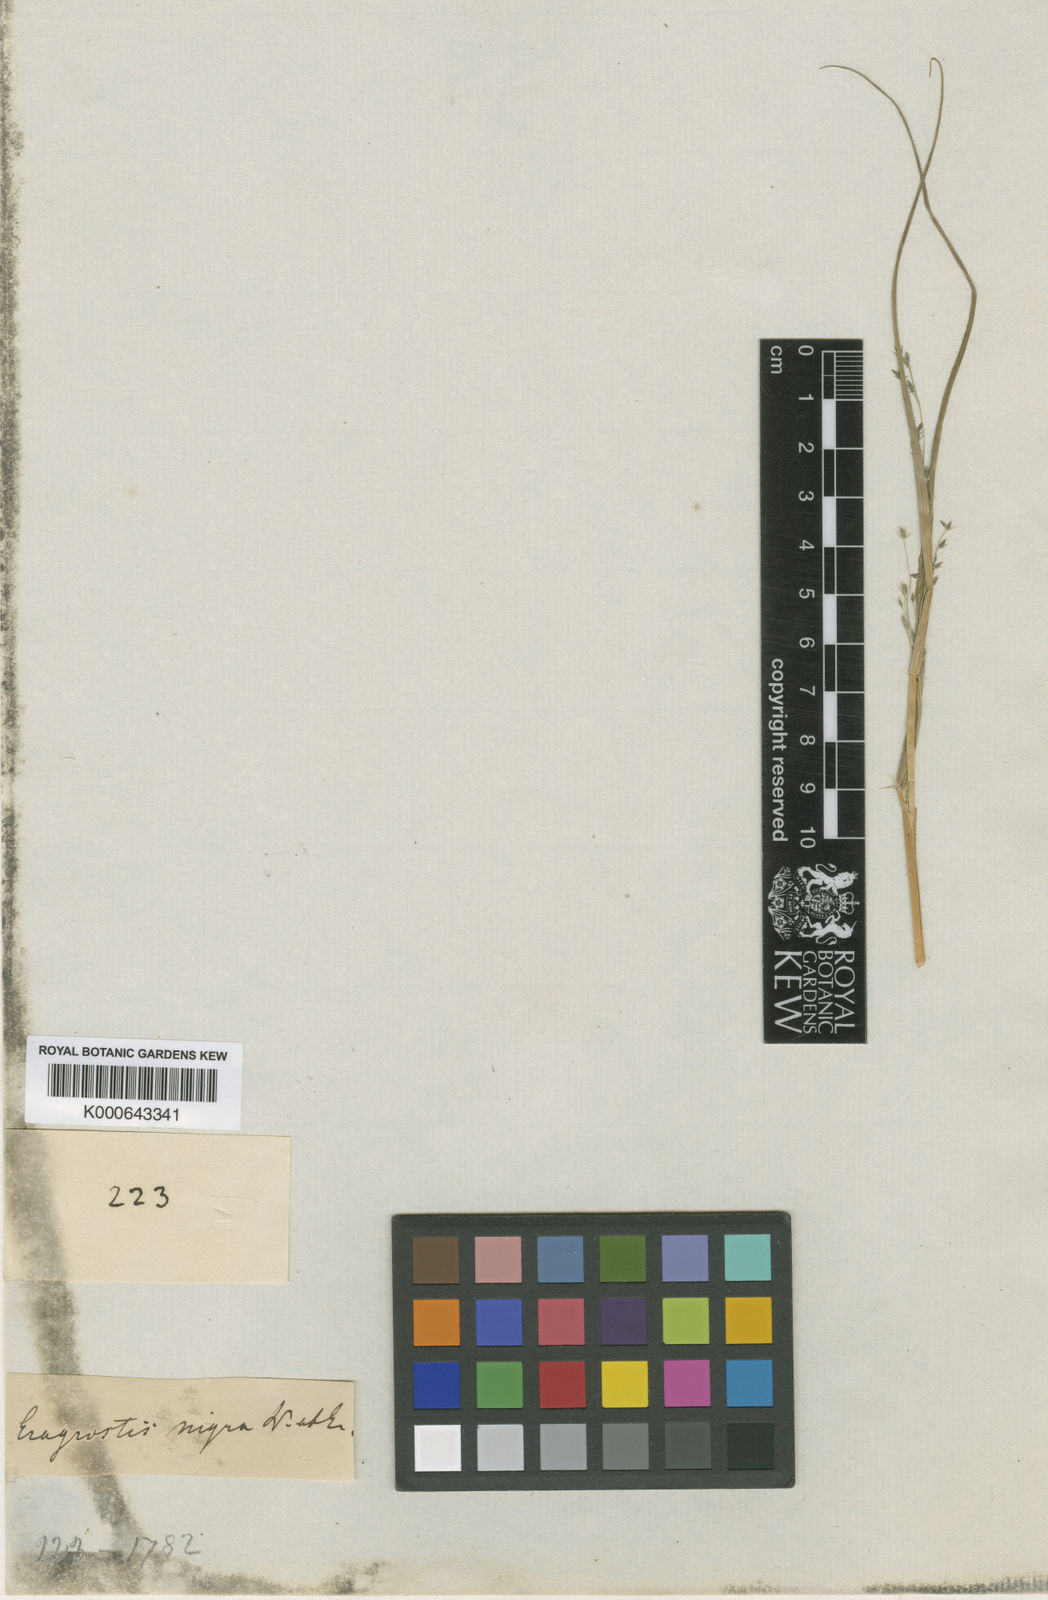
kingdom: Plantae
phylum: Tracheophyta
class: Liliopsida
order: Poales
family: Poaceae
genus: Eragrostis
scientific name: Eragrostis nigra
